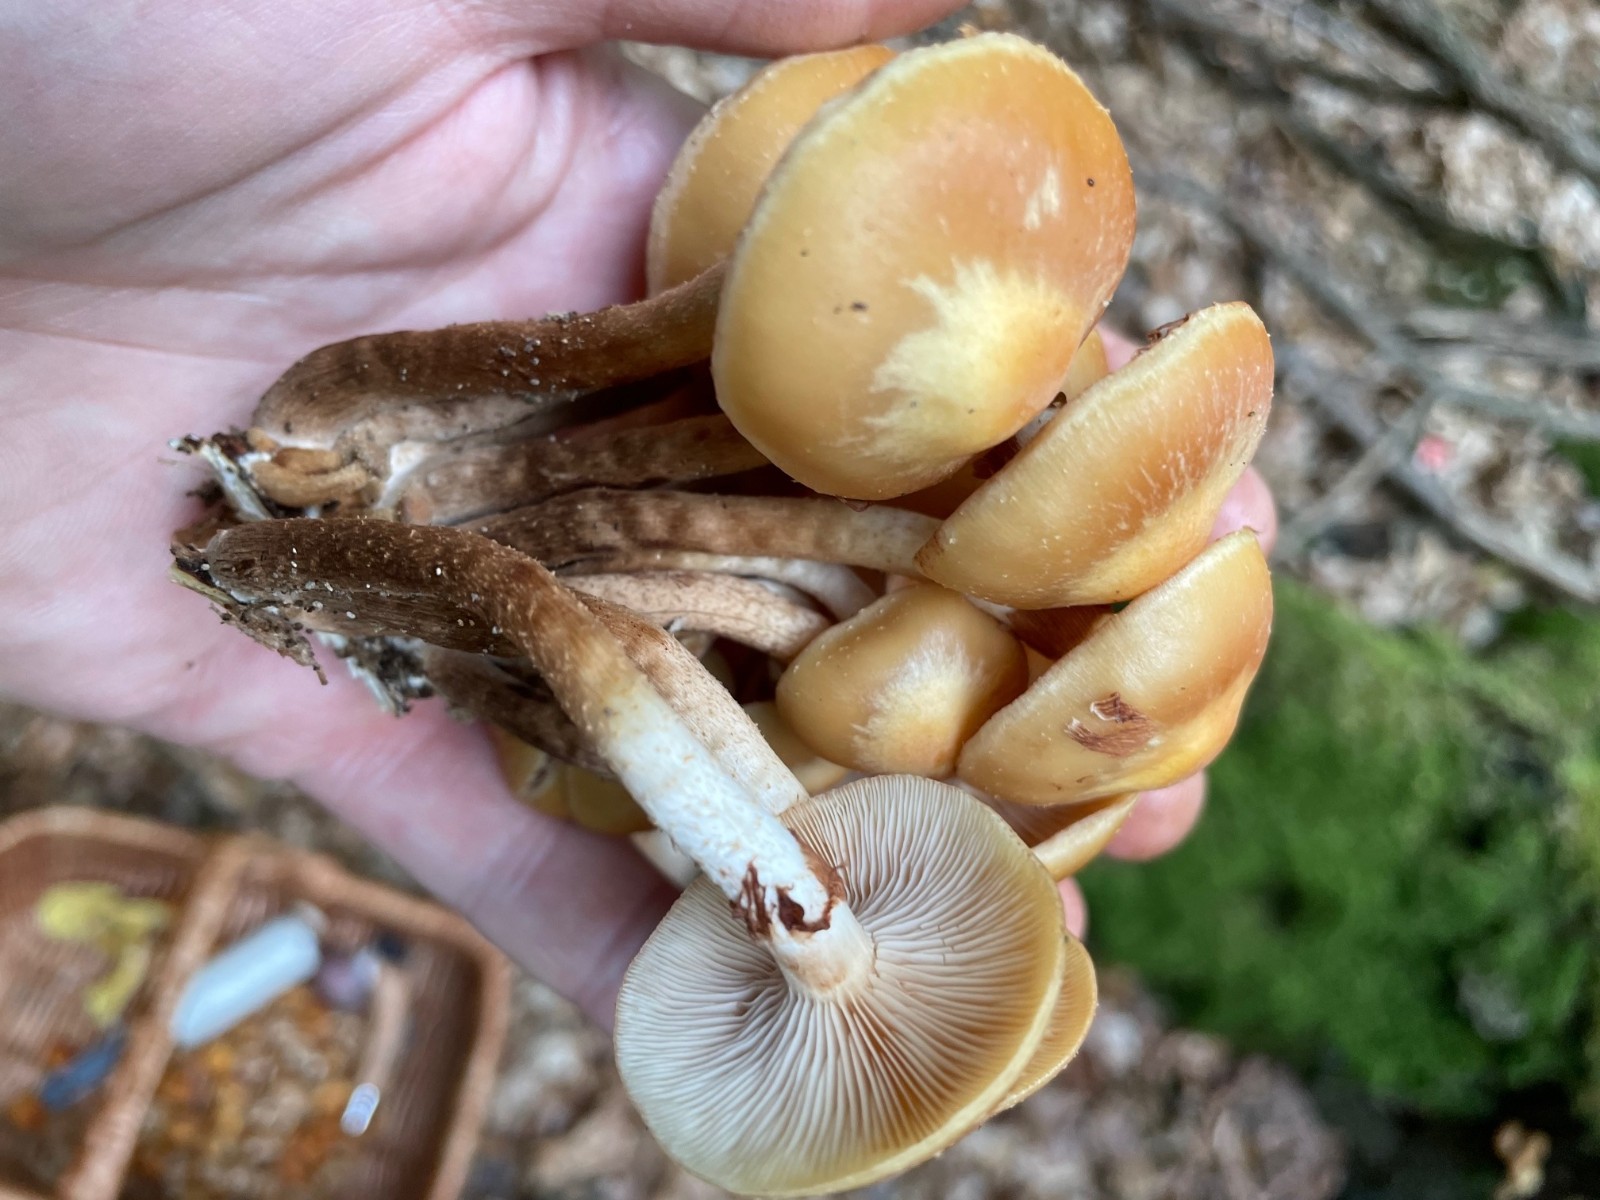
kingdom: Fungi
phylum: Basidiomycota
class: Agaricomycetes
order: Agaricales
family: Strophariaceae
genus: Kuehneromyces
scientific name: Kuehneromyces mutabilis
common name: foranderlig skælhat
